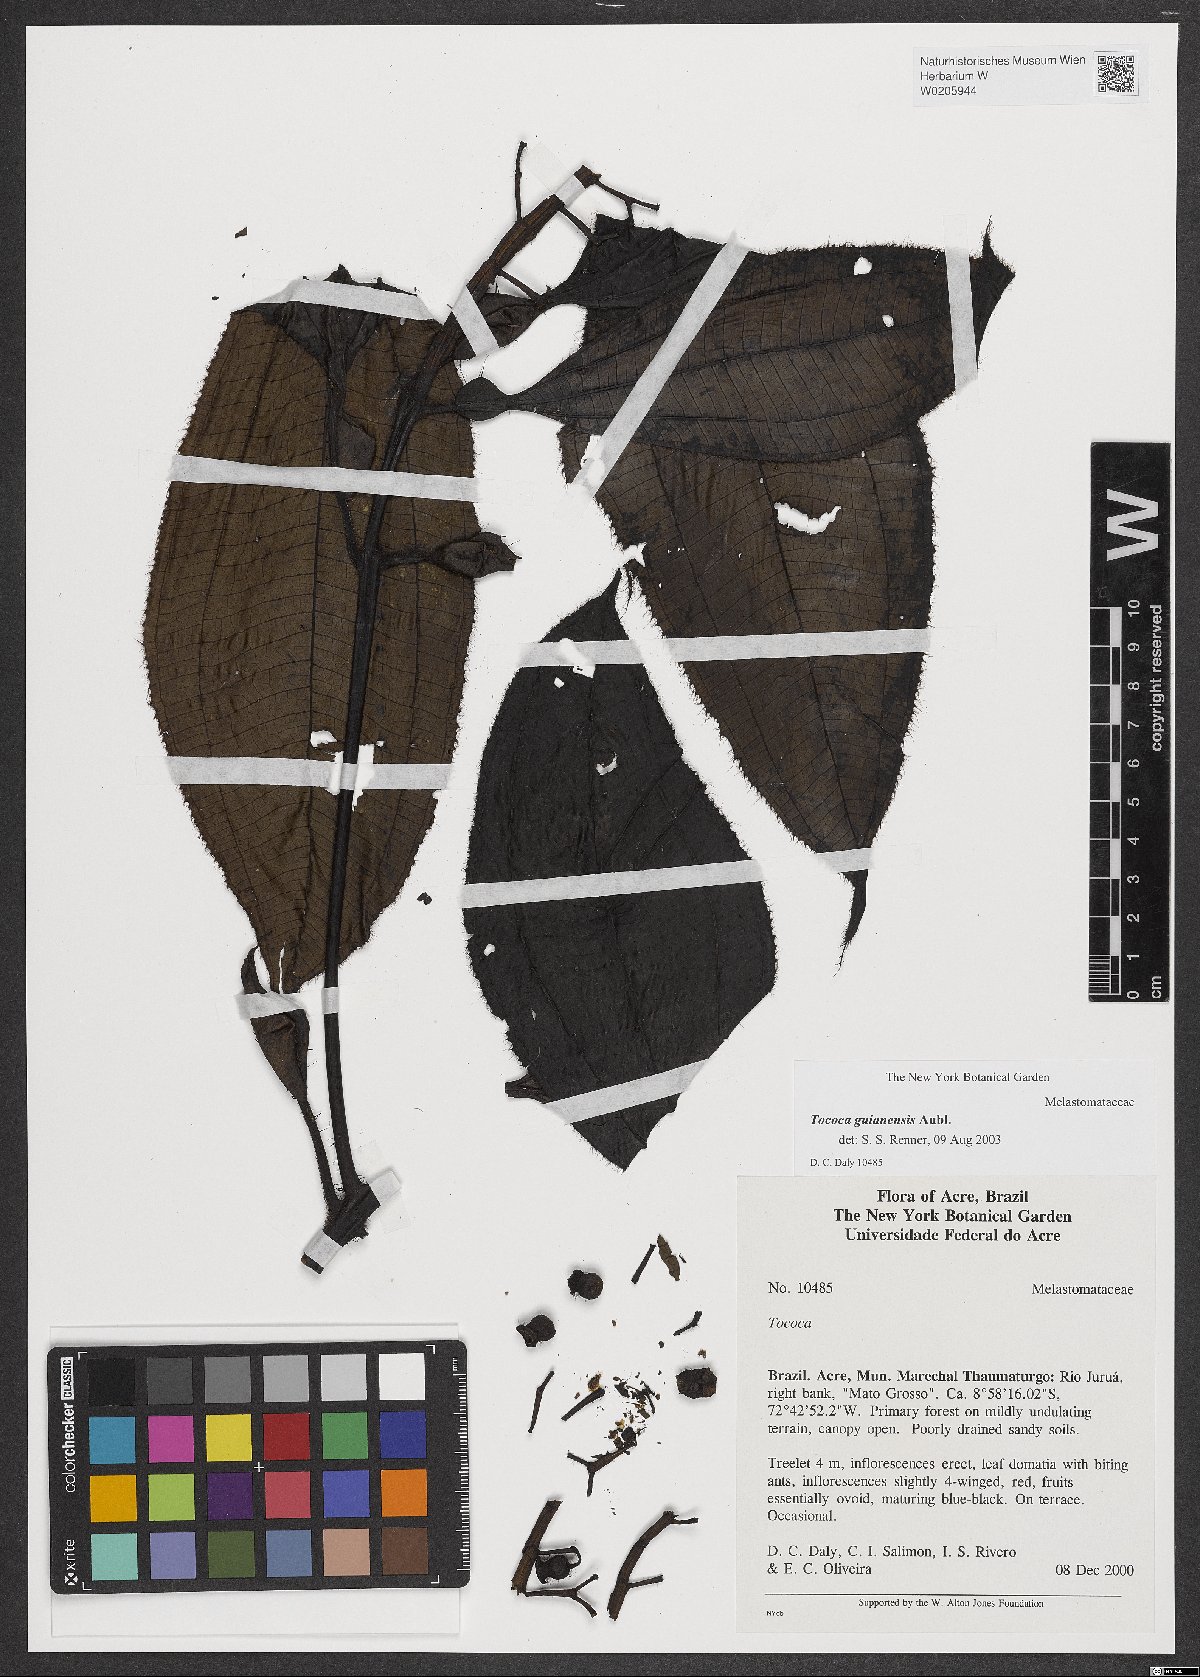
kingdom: Plantae
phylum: Tracheophyta
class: Magnoliopsida
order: Myrtales
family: Melastomataceae
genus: Miconia
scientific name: Miconia tococa
